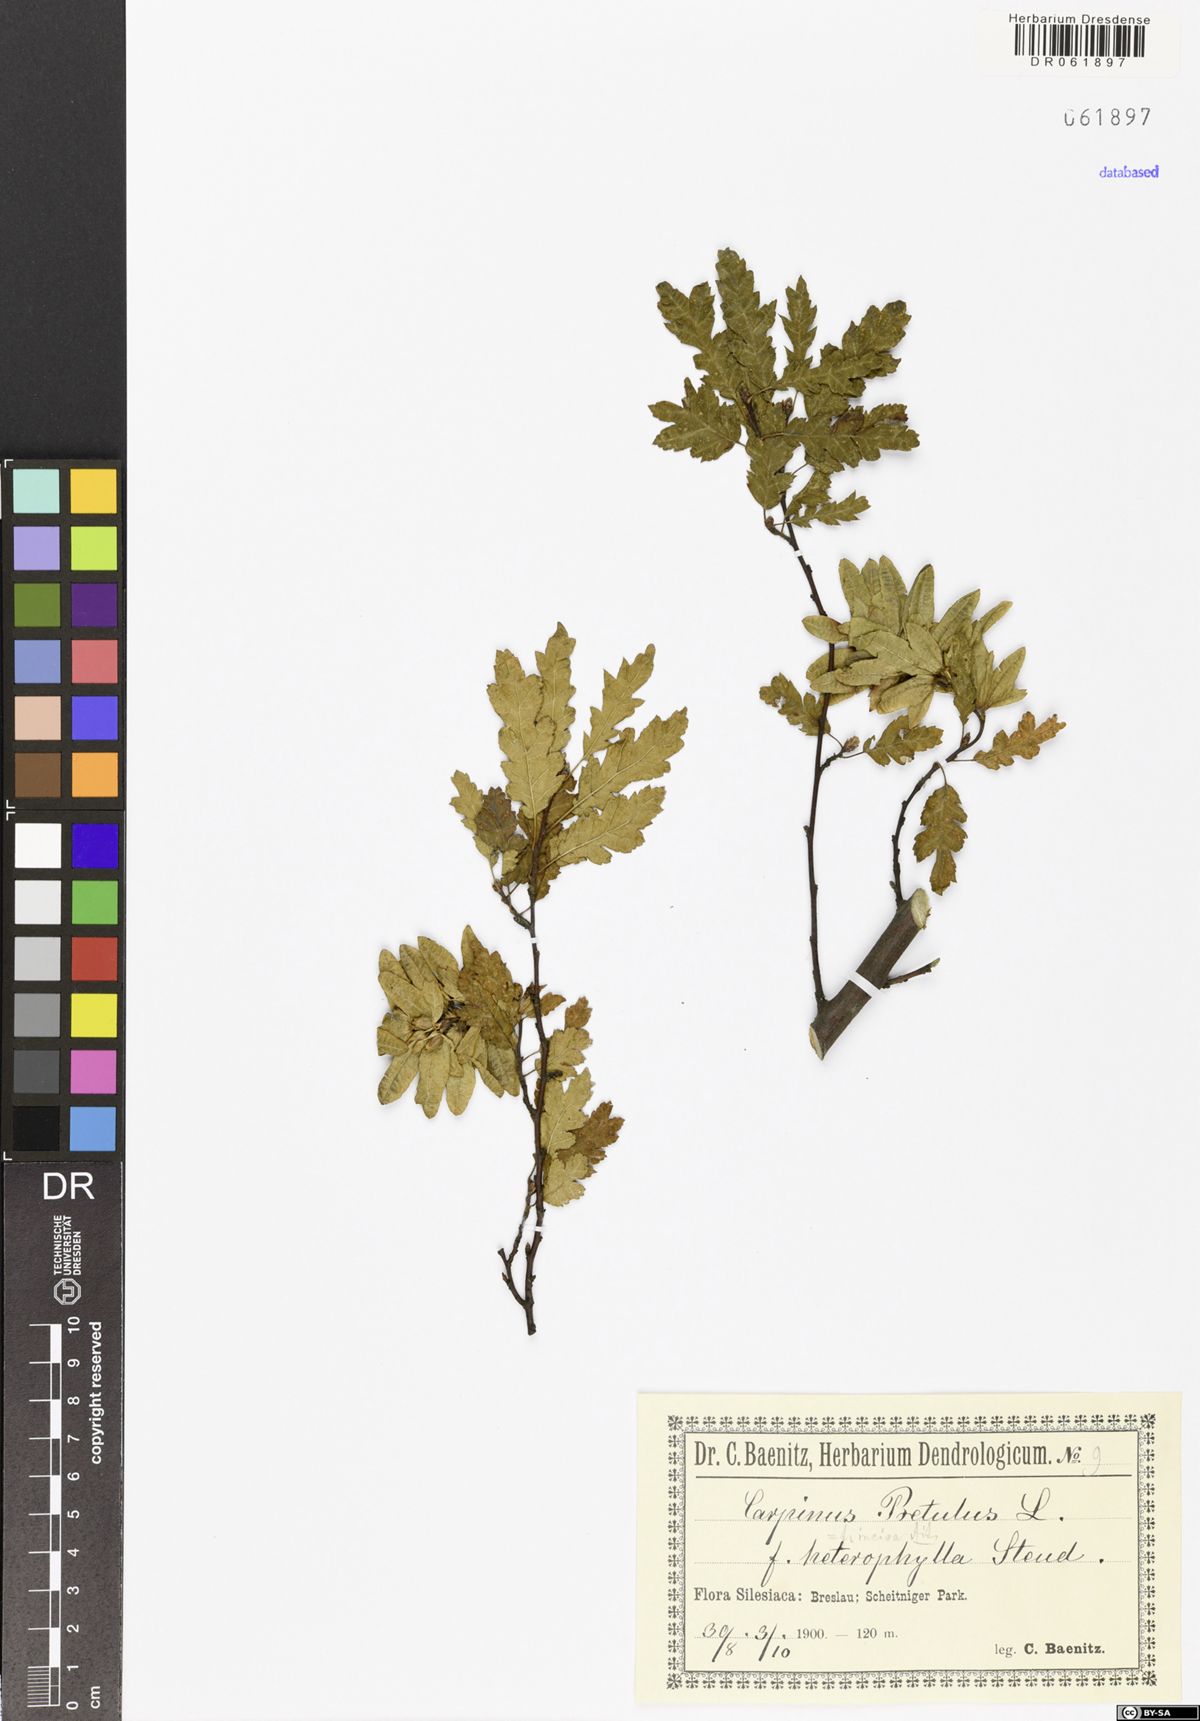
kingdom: Plantae
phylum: Tracheophyta
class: Magnoliopsida
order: Fagales
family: Betulaceae
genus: Carpinus
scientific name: Carpinus betulus
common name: Hornbeam
